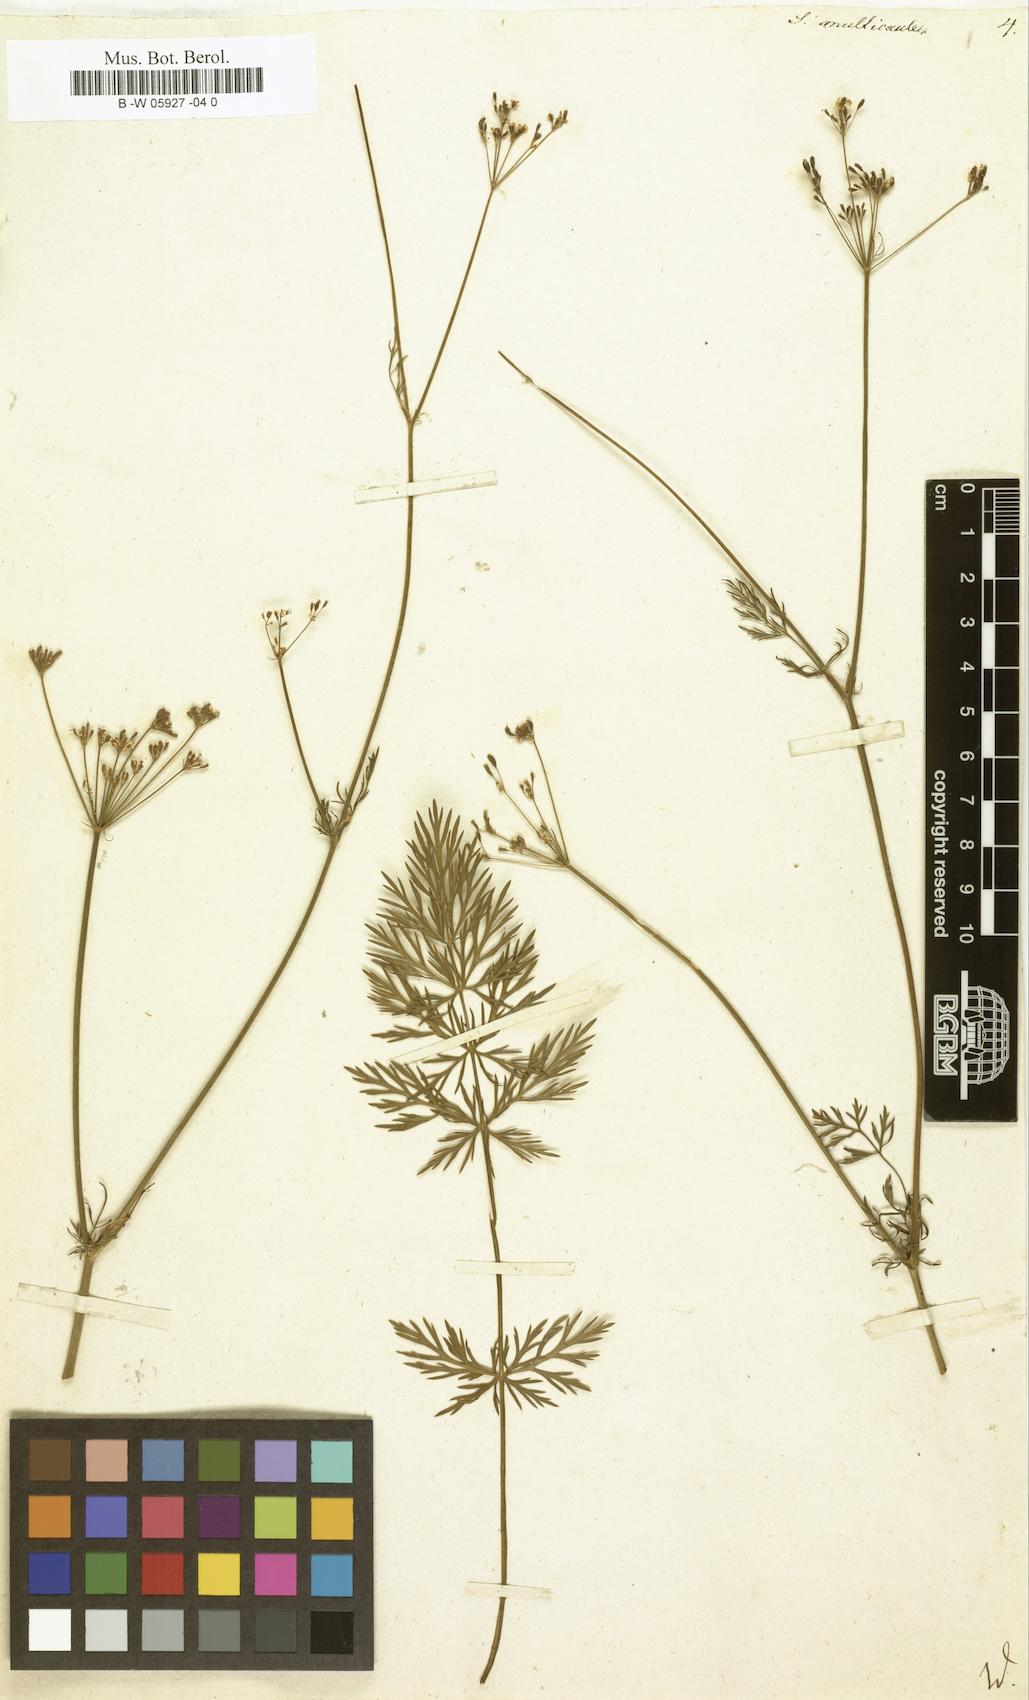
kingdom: Plantae
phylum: Tracheophyta
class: Magnoliopsida
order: Apiales
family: Apiaceae
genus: Seseli
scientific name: Seseli montanum
